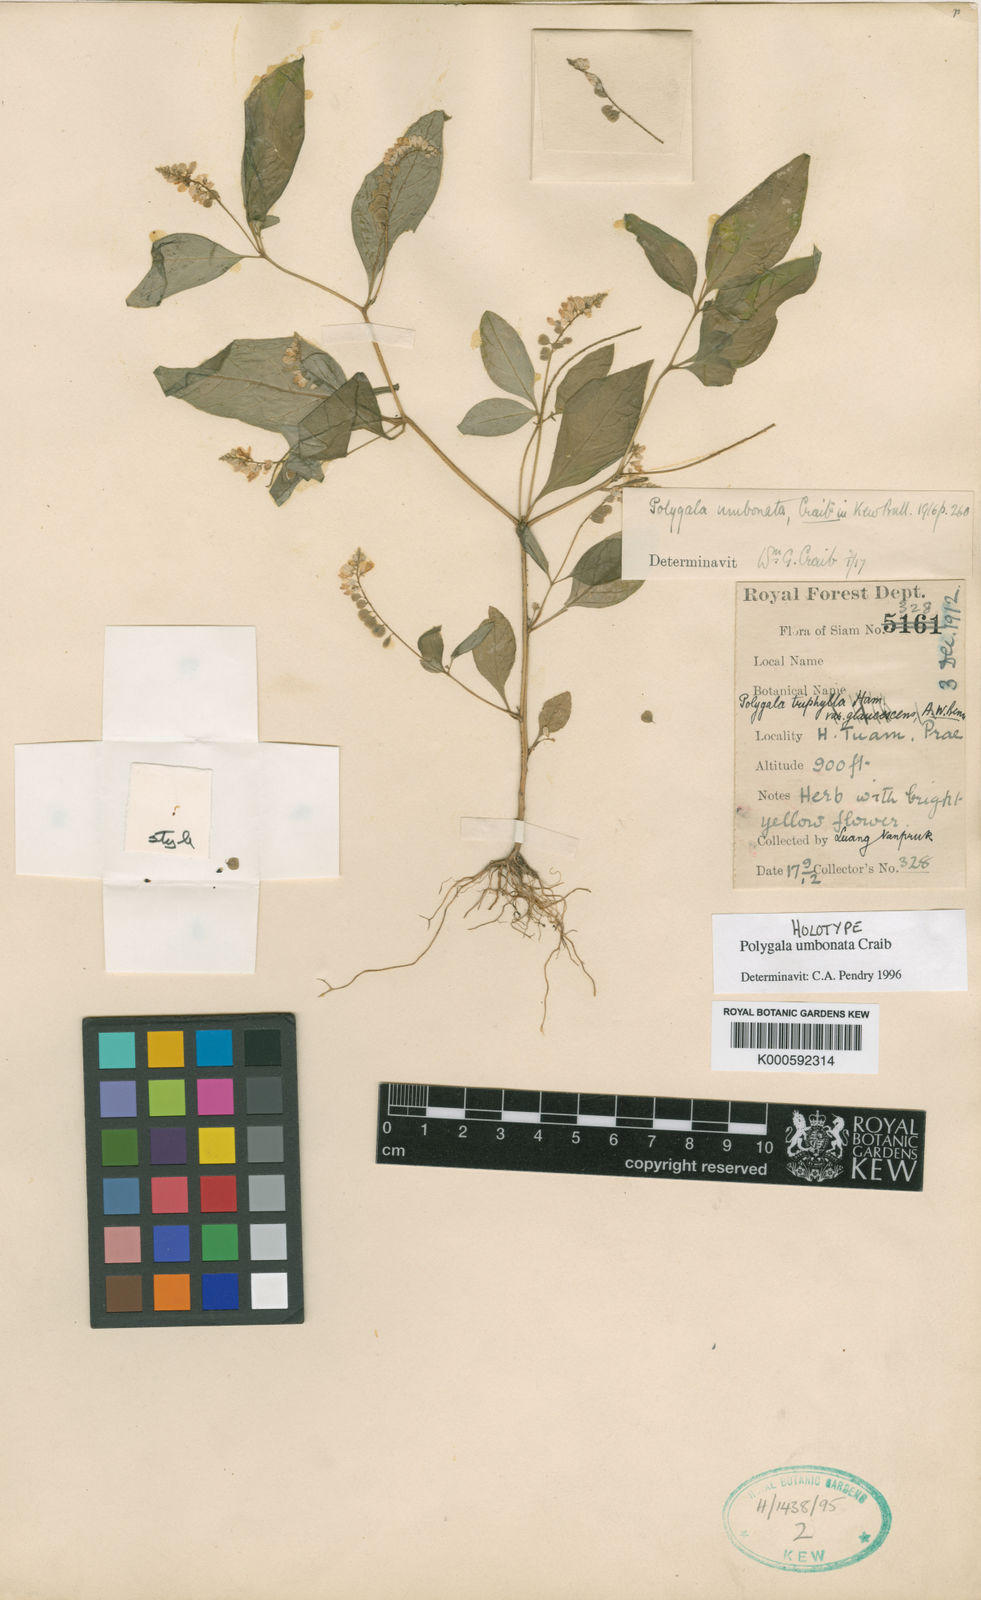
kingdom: Plantae
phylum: Tracheophyta
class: Magnoliopsida
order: Fabales
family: Polygalaceae
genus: Polygala
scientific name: Polygala umbonata
